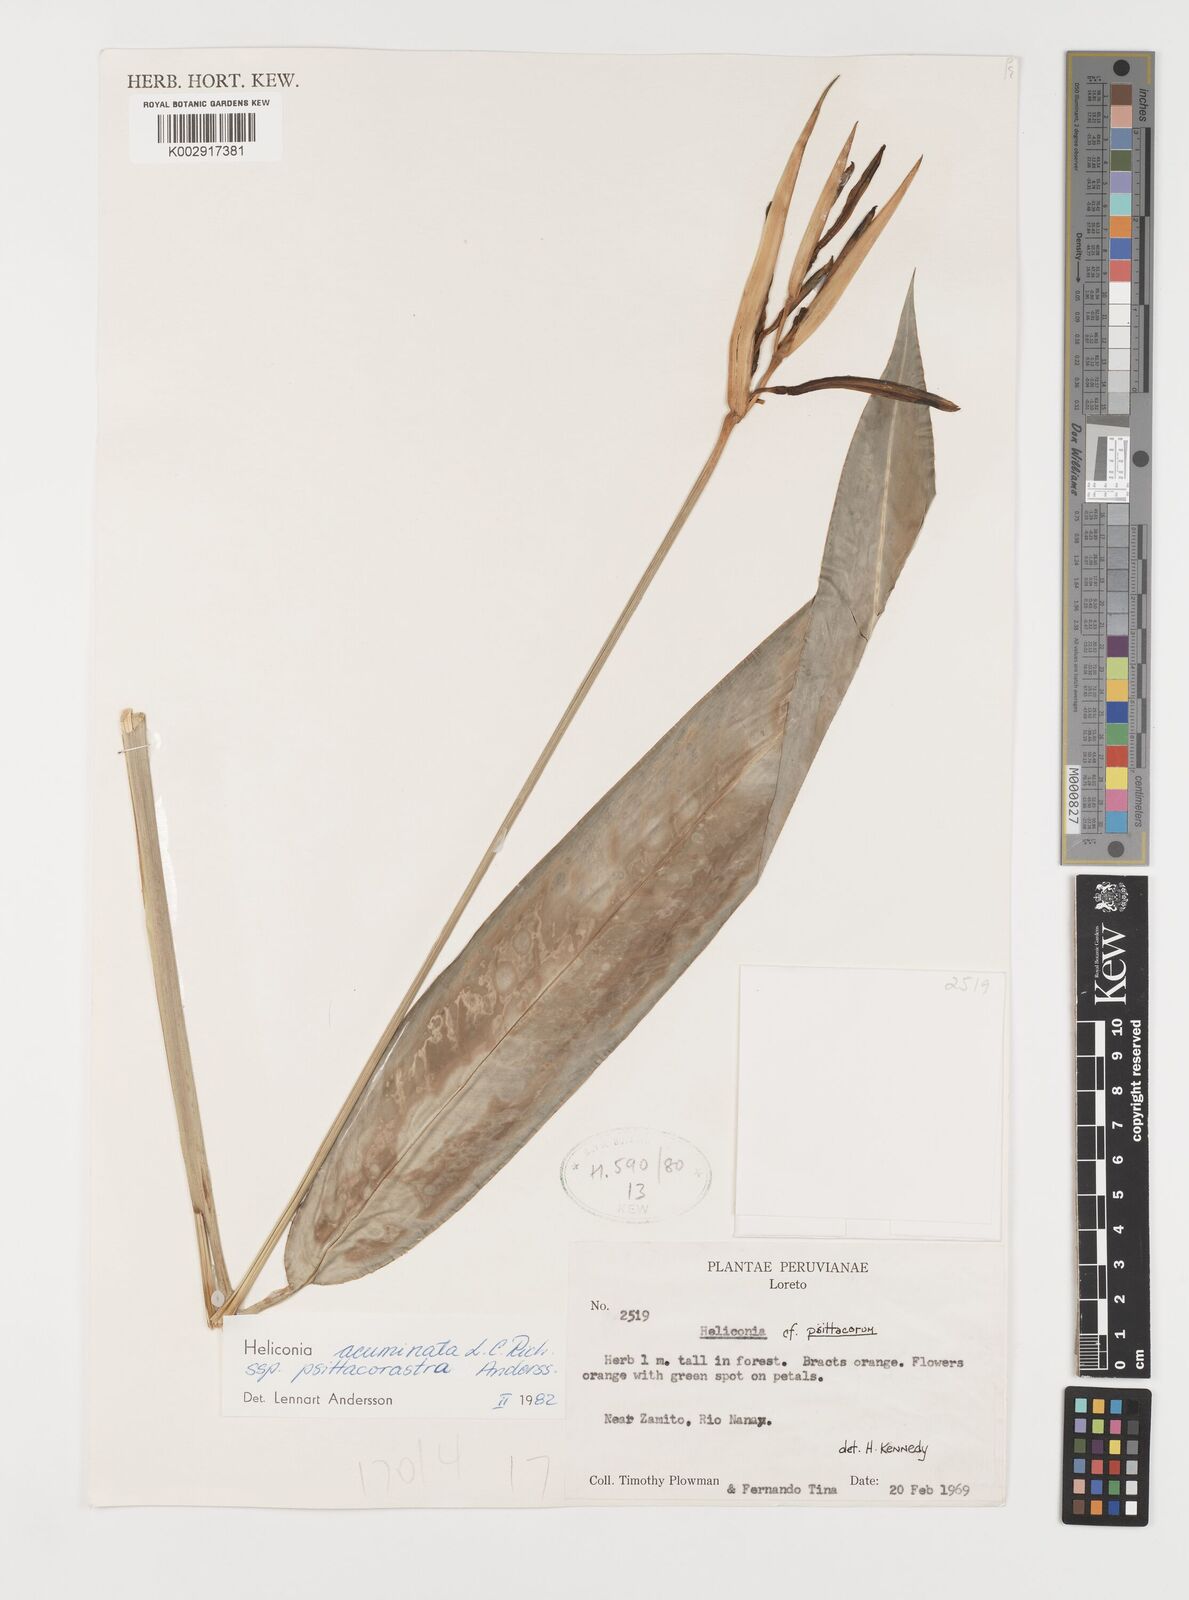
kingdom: Plantae
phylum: Tracheophyta
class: Liliopsida
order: Zingiberales
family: Heliconiaceae
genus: Heliconia
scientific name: Heliconia acuminata
